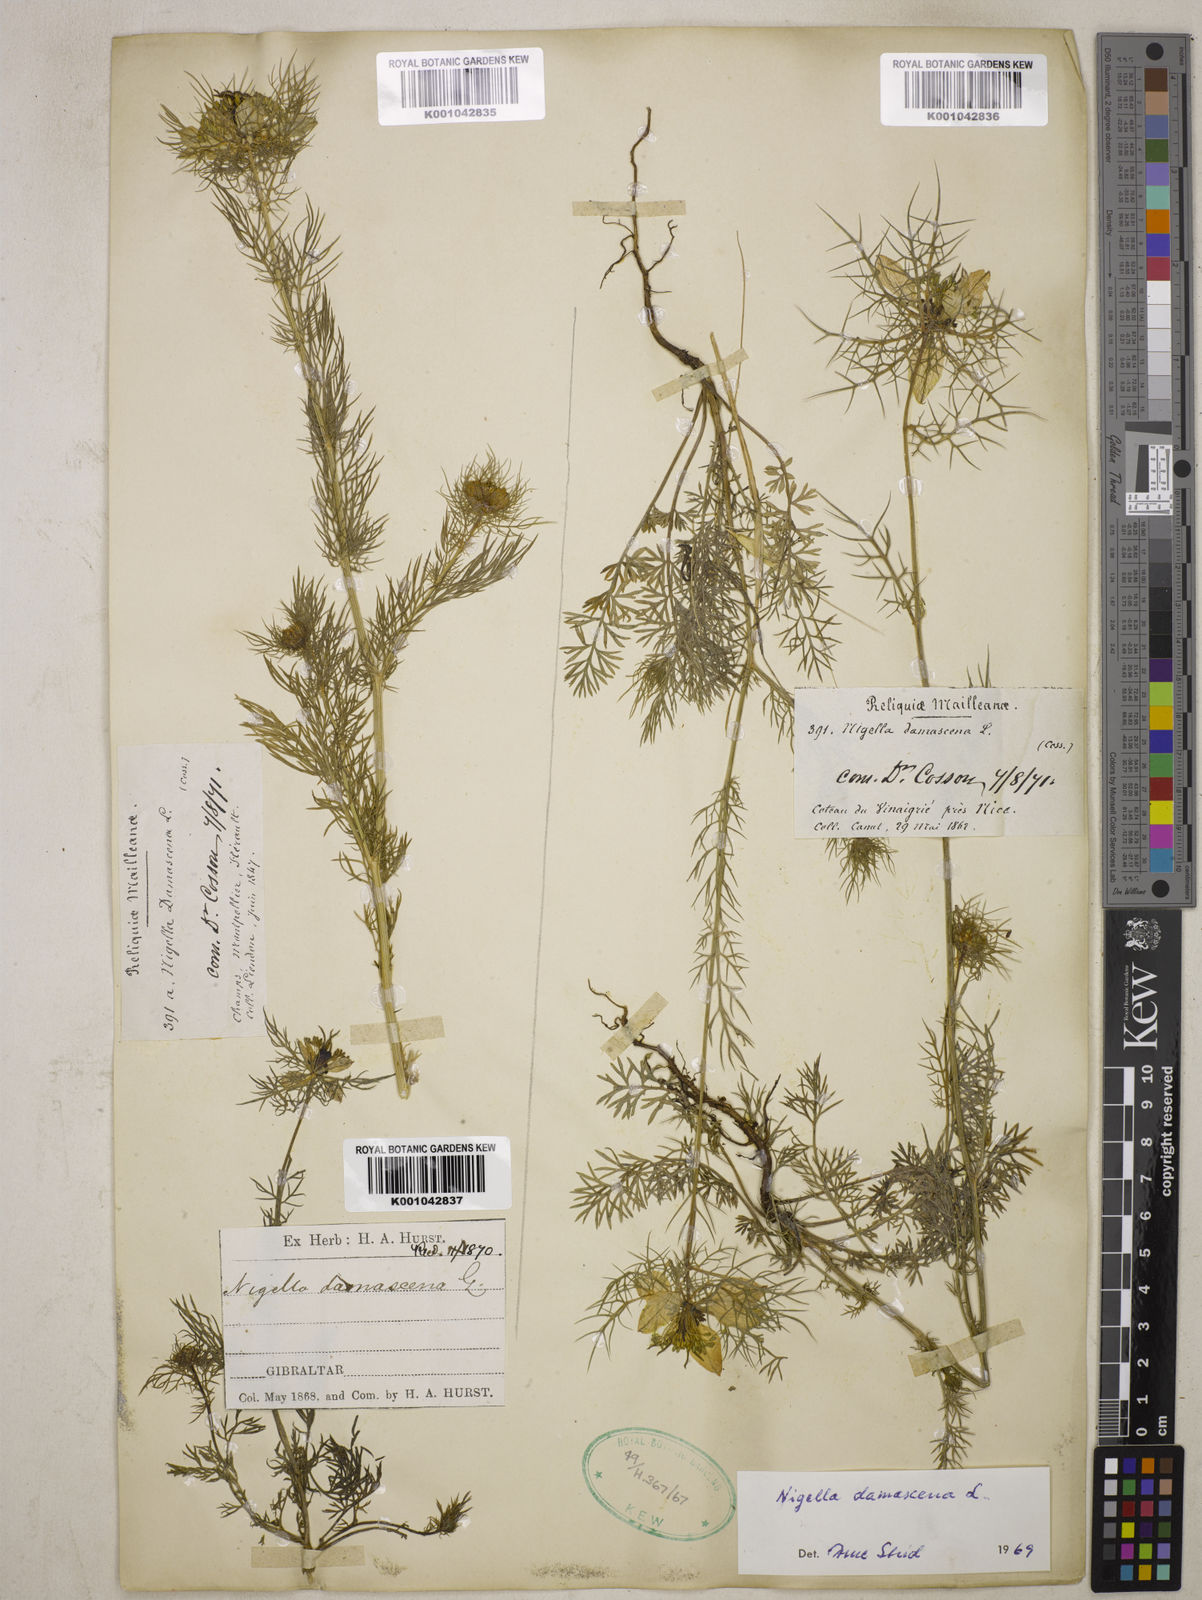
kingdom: Plantae
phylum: Tracheophyta
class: Magnoliopsida
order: Ranunculales
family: Ranunculaceae
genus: Nigella
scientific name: Nigella damascena
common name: Love-in-a-mist
